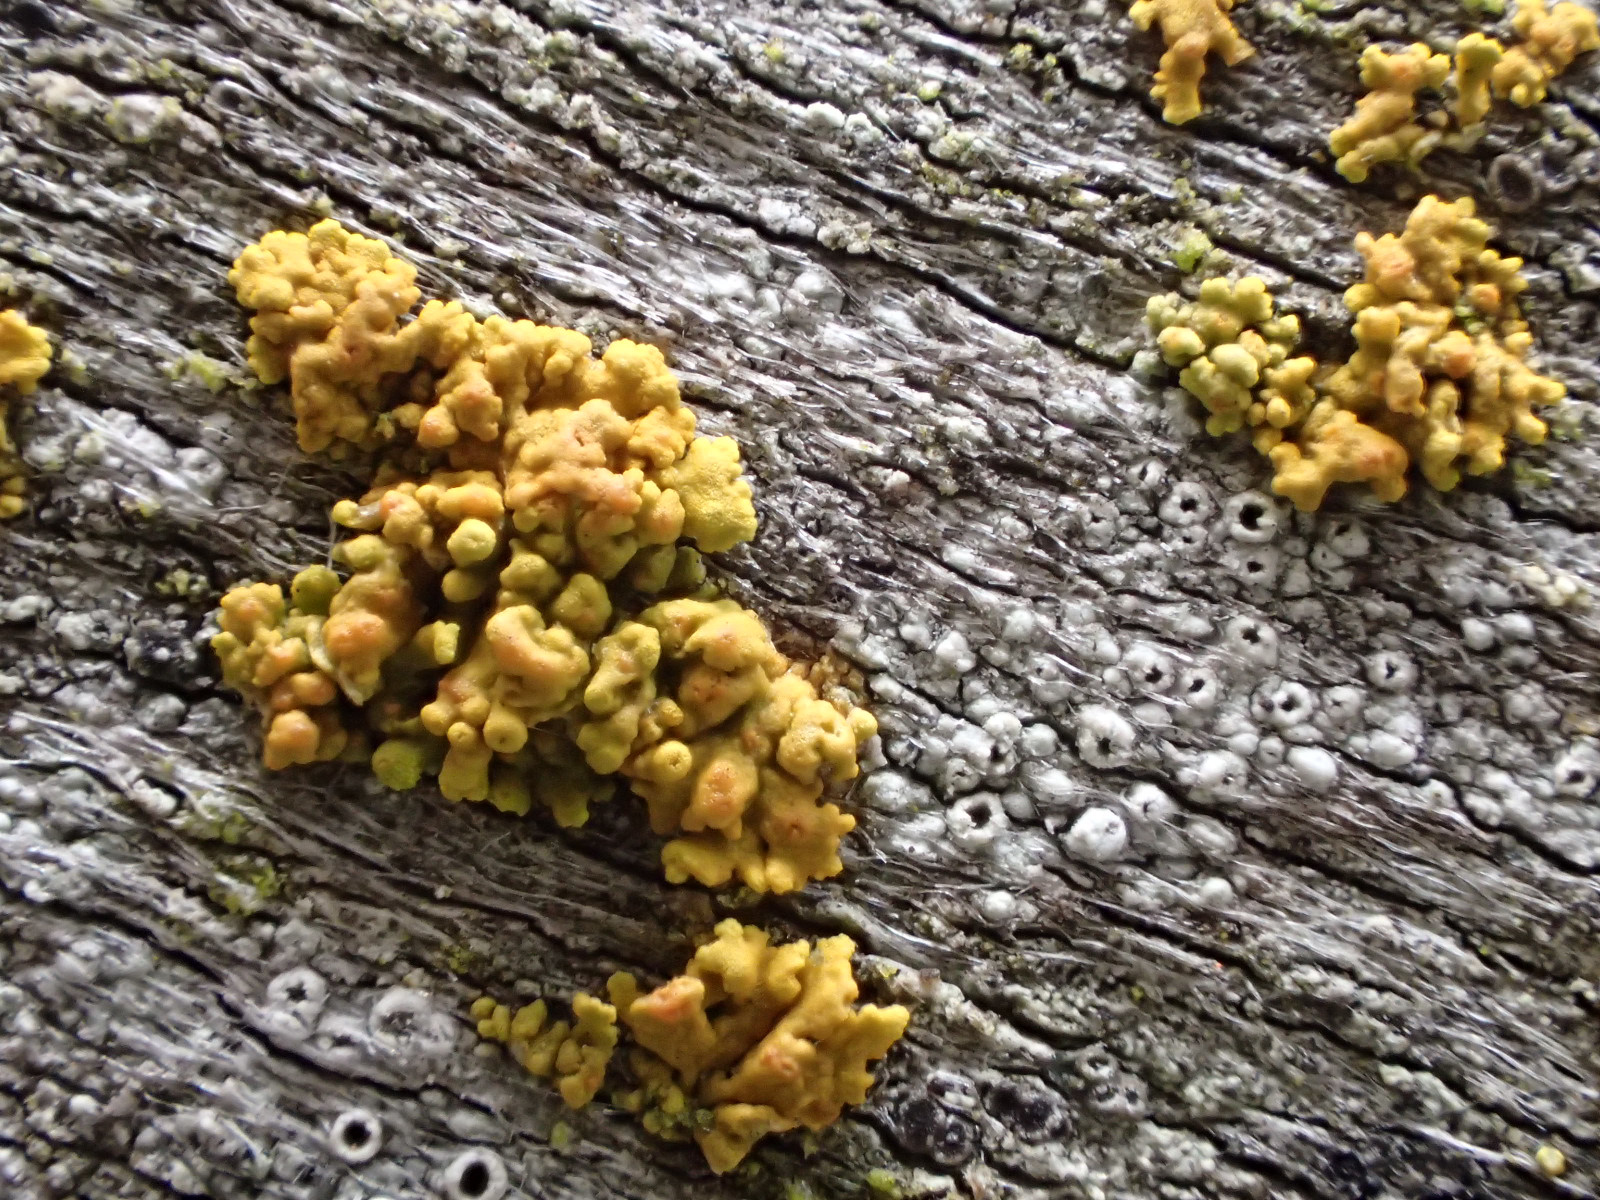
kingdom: Fungi
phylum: Ascomycota
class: Lecanoromycetes
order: Teloschistales
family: Teloschistaceae
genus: Polycauliona
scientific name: Polycauliona polycarpa
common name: mangefrugtet orangelav
